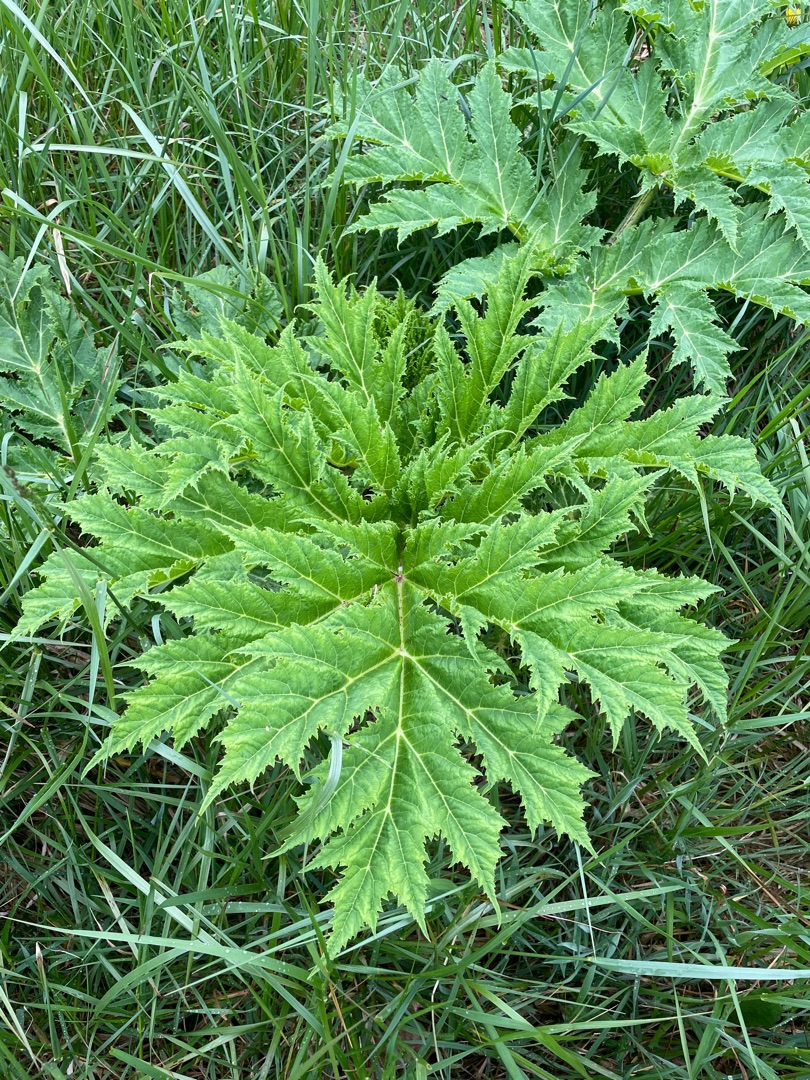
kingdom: Plantae
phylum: Tracheophyta
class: Magnoliopsida
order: Apiales
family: Apiaceae
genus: Heracleum
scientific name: Heracleum mantegazzianum
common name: Kæmpe-bjørneklo
